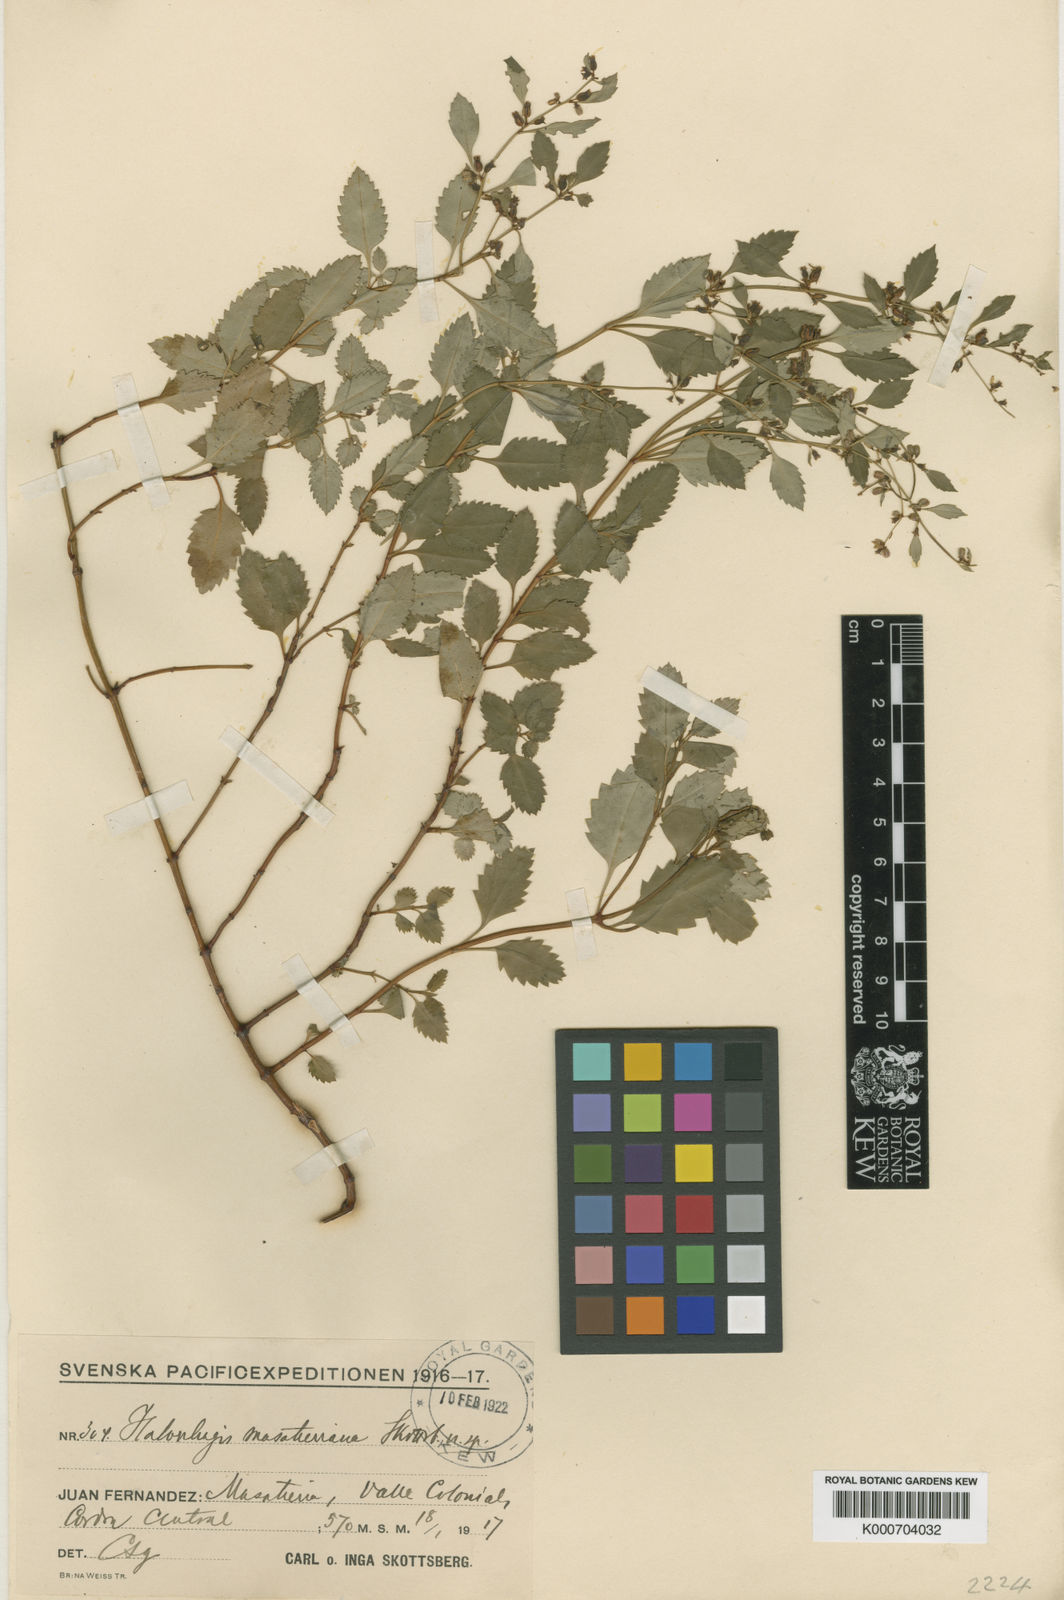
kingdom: Plantae
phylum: Tracheophyta
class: Magnoliopsida
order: Saxifragales
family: Haloragaceae
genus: Haloragis
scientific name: Haloragis masatierrana
